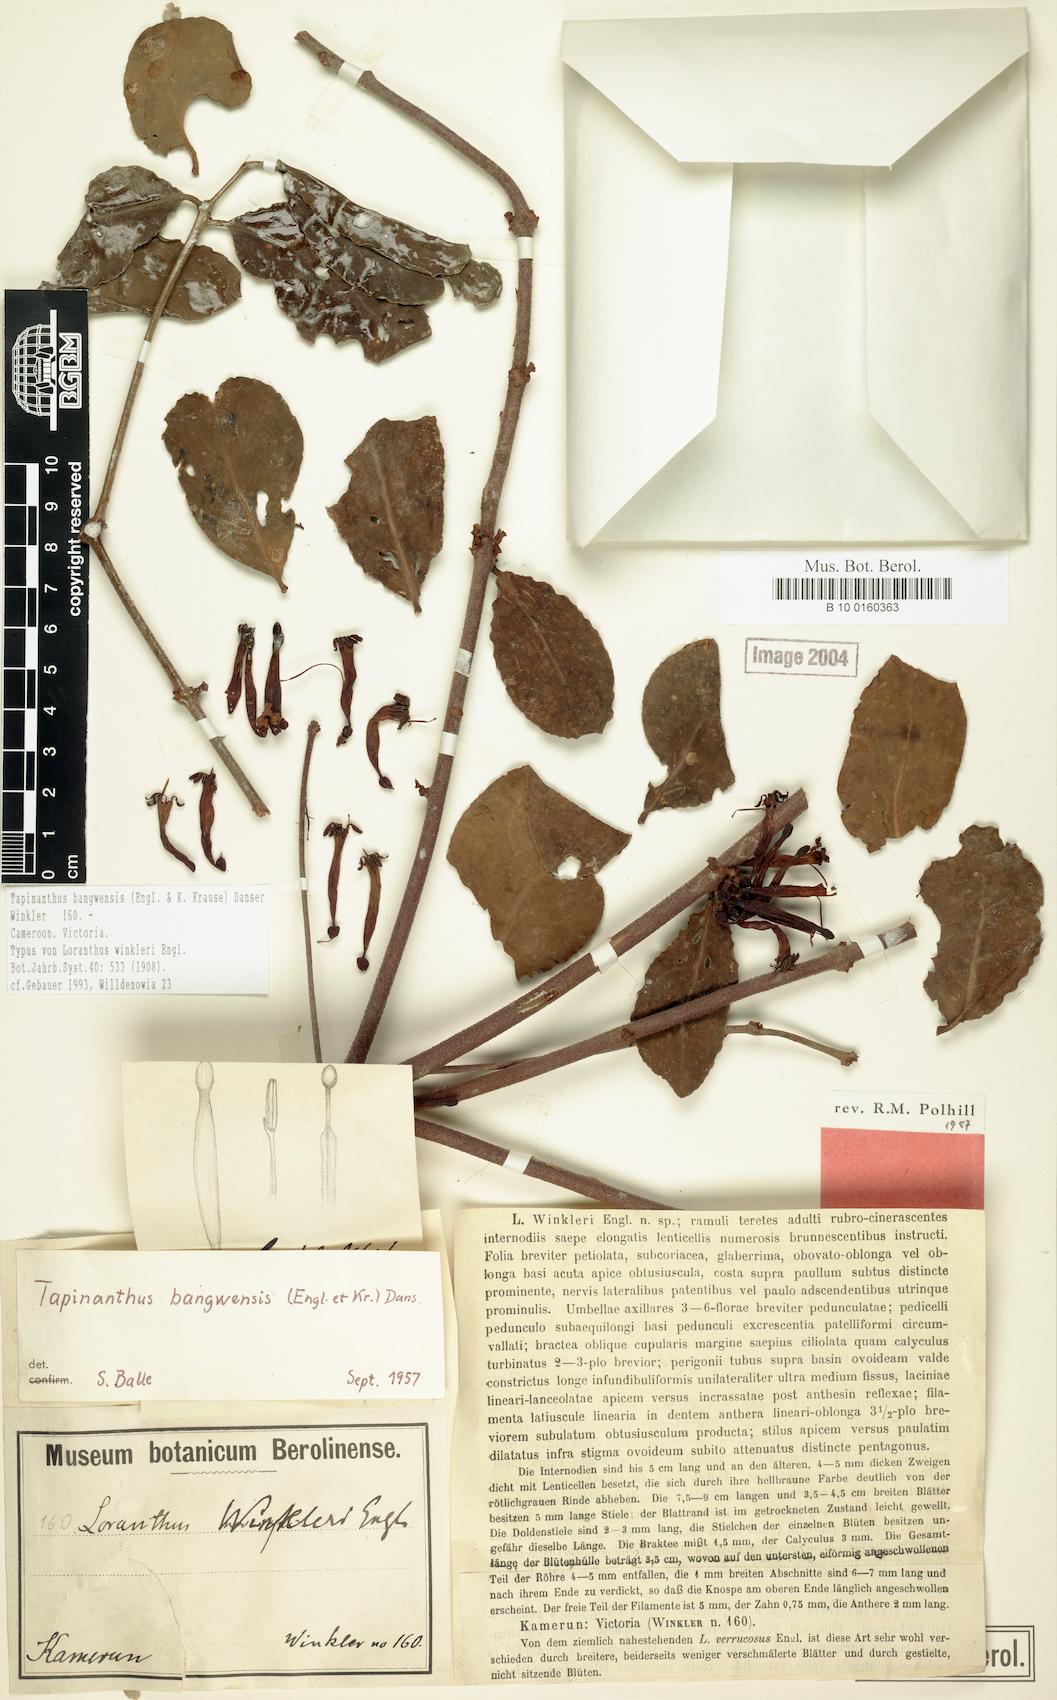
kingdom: Plantae
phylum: Tracheophyta
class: Magnoliopsida
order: Santalales
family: Loranthaceae
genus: Tapinanthus
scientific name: Tapinanthus bangwensis
